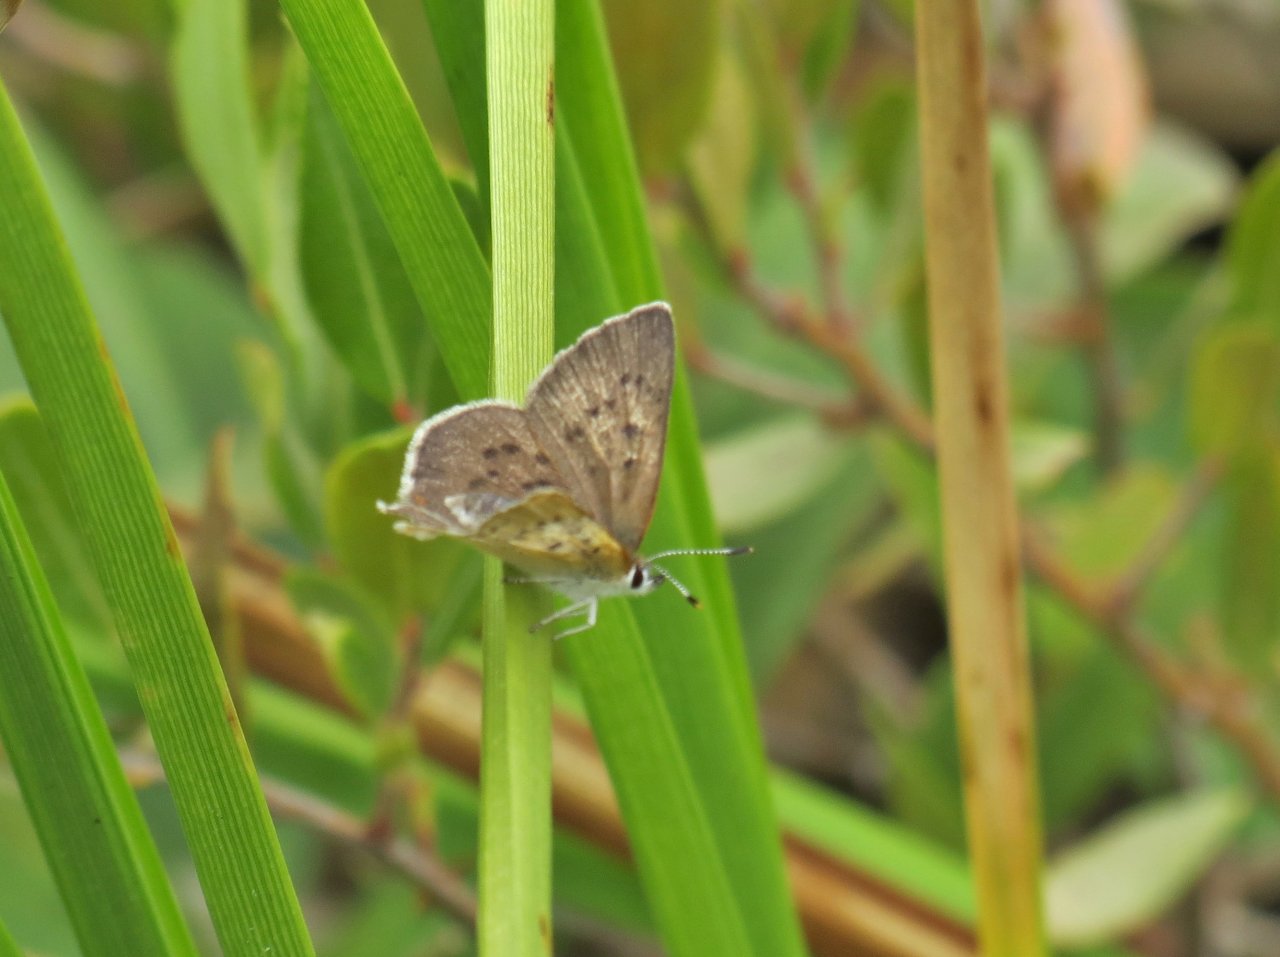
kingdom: Animalia
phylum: Arthropoda
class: Insecta
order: Lepidoptera
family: Sesiidae
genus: Sesia
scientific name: Sesia Lycaena epixanthe
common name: Bog Copper
